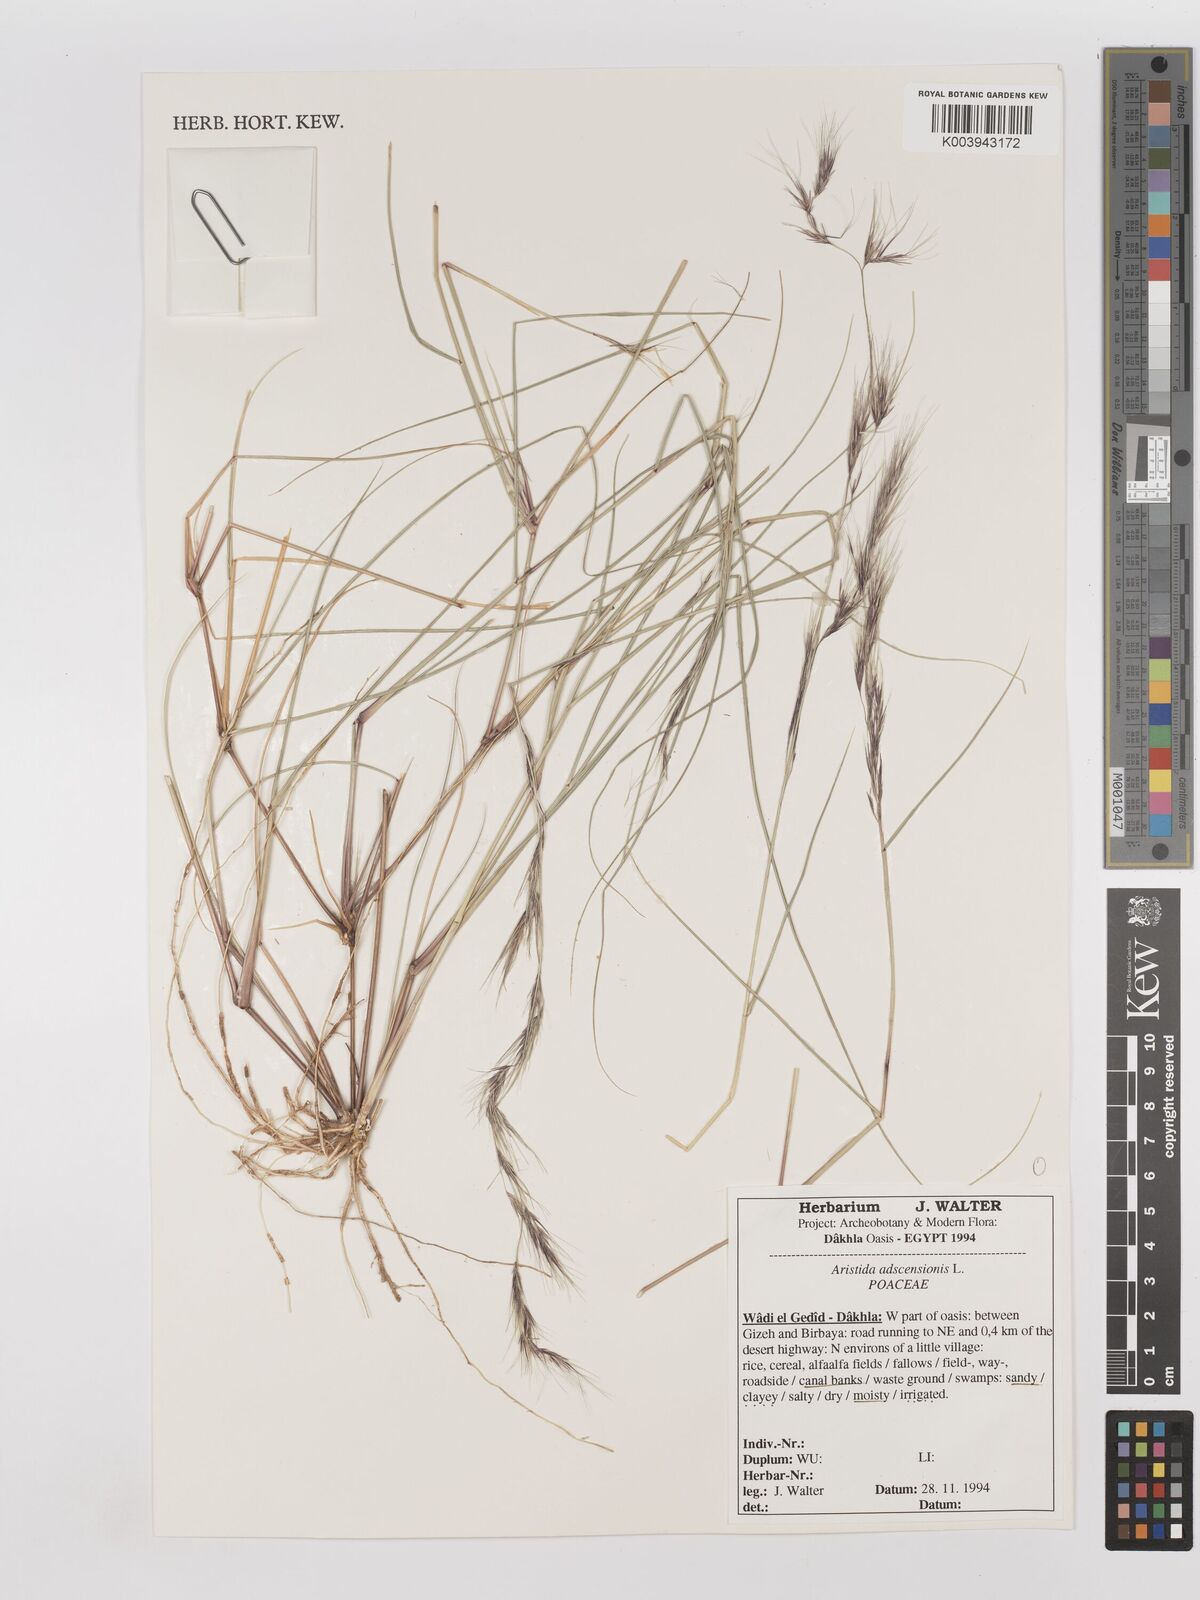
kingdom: Plantae
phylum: Tracheophyta
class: Liliopsida
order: Poales
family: Poaceae
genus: Aristida
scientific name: Aristida adscensionis
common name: Sixweeks threeawn
